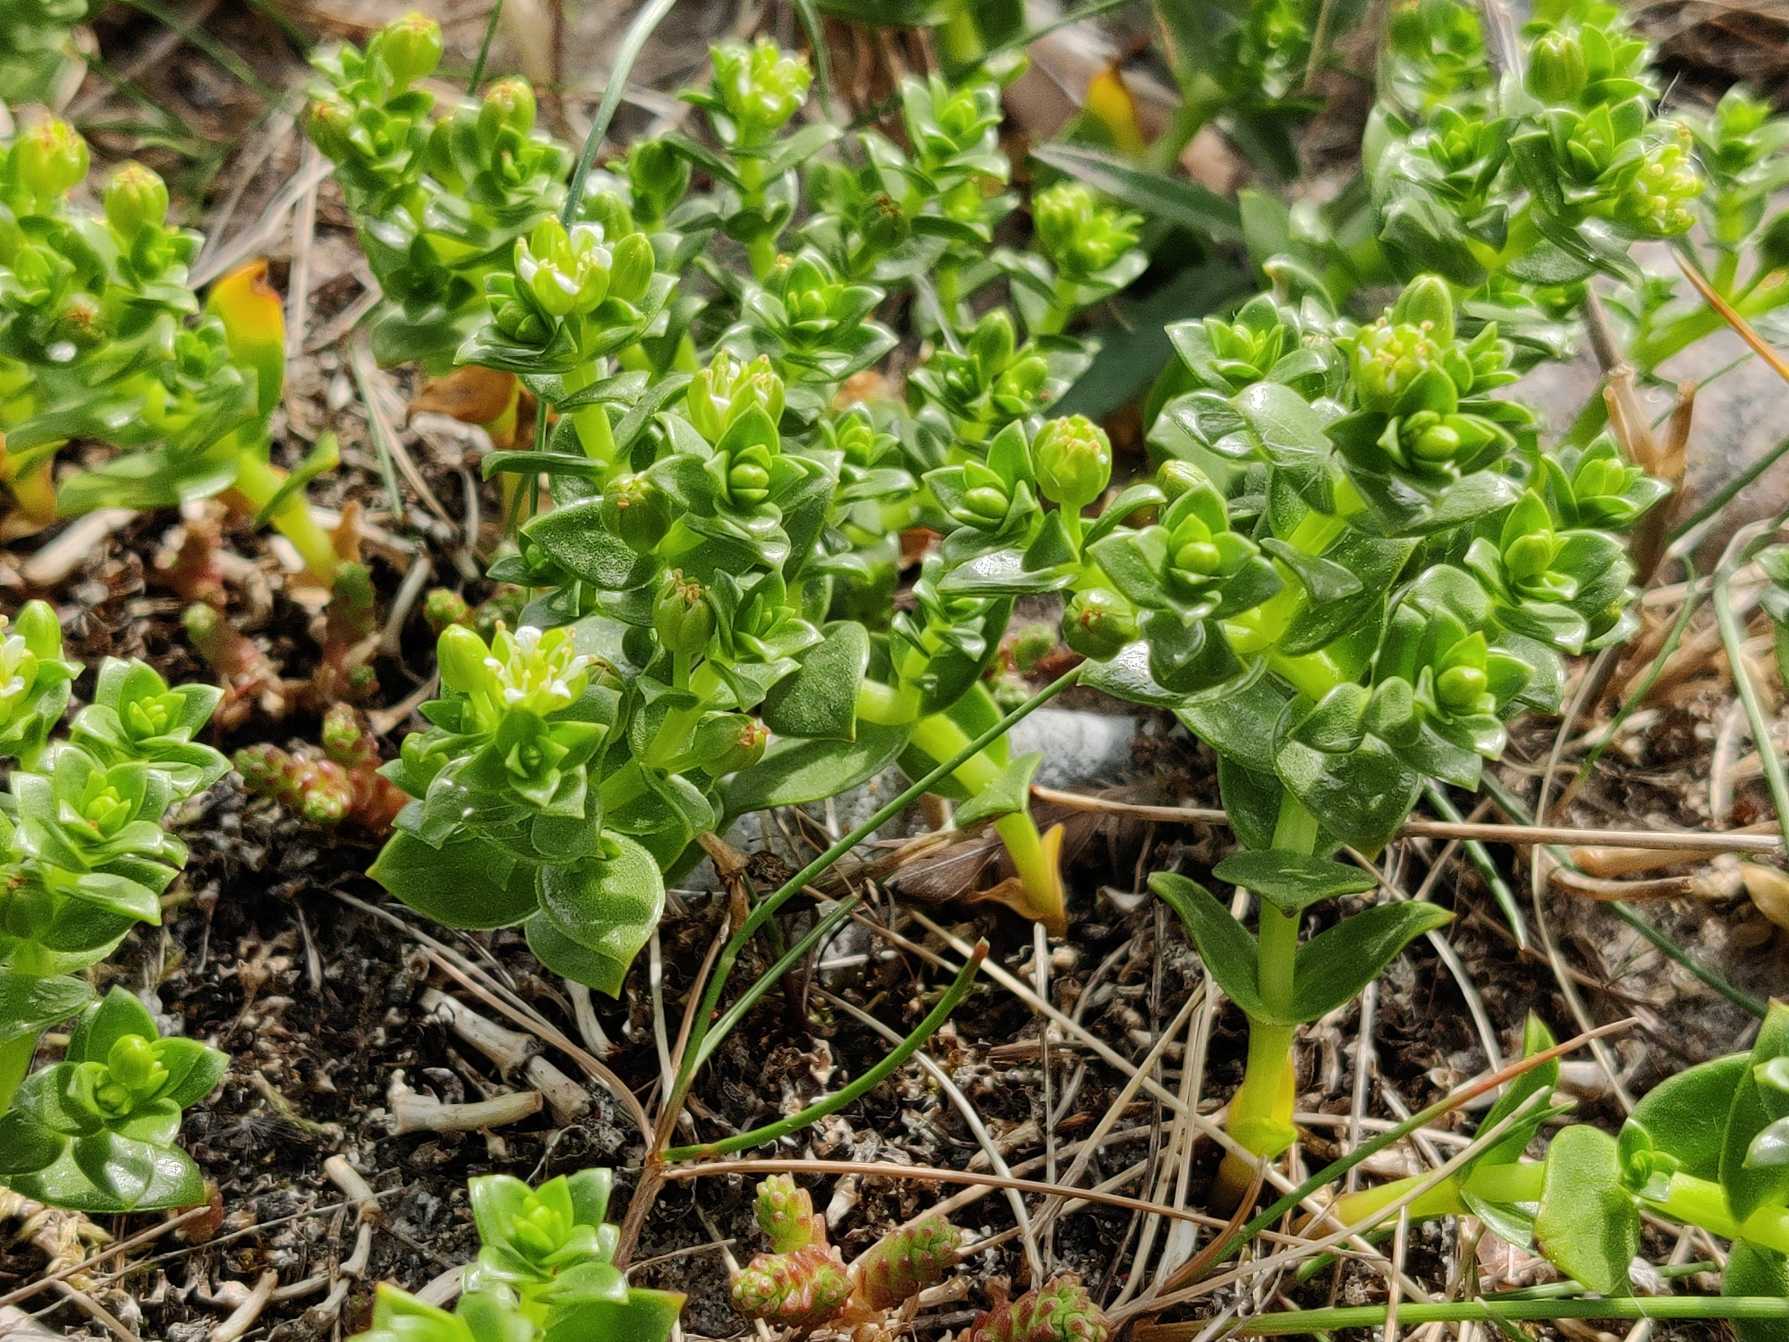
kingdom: Plantae
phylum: Tracheophyta
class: Magnoliopsida
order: Caryophyllales
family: Caryophyllaceae
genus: Honckenya
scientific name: Honckenya peploides
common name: Strandarve
